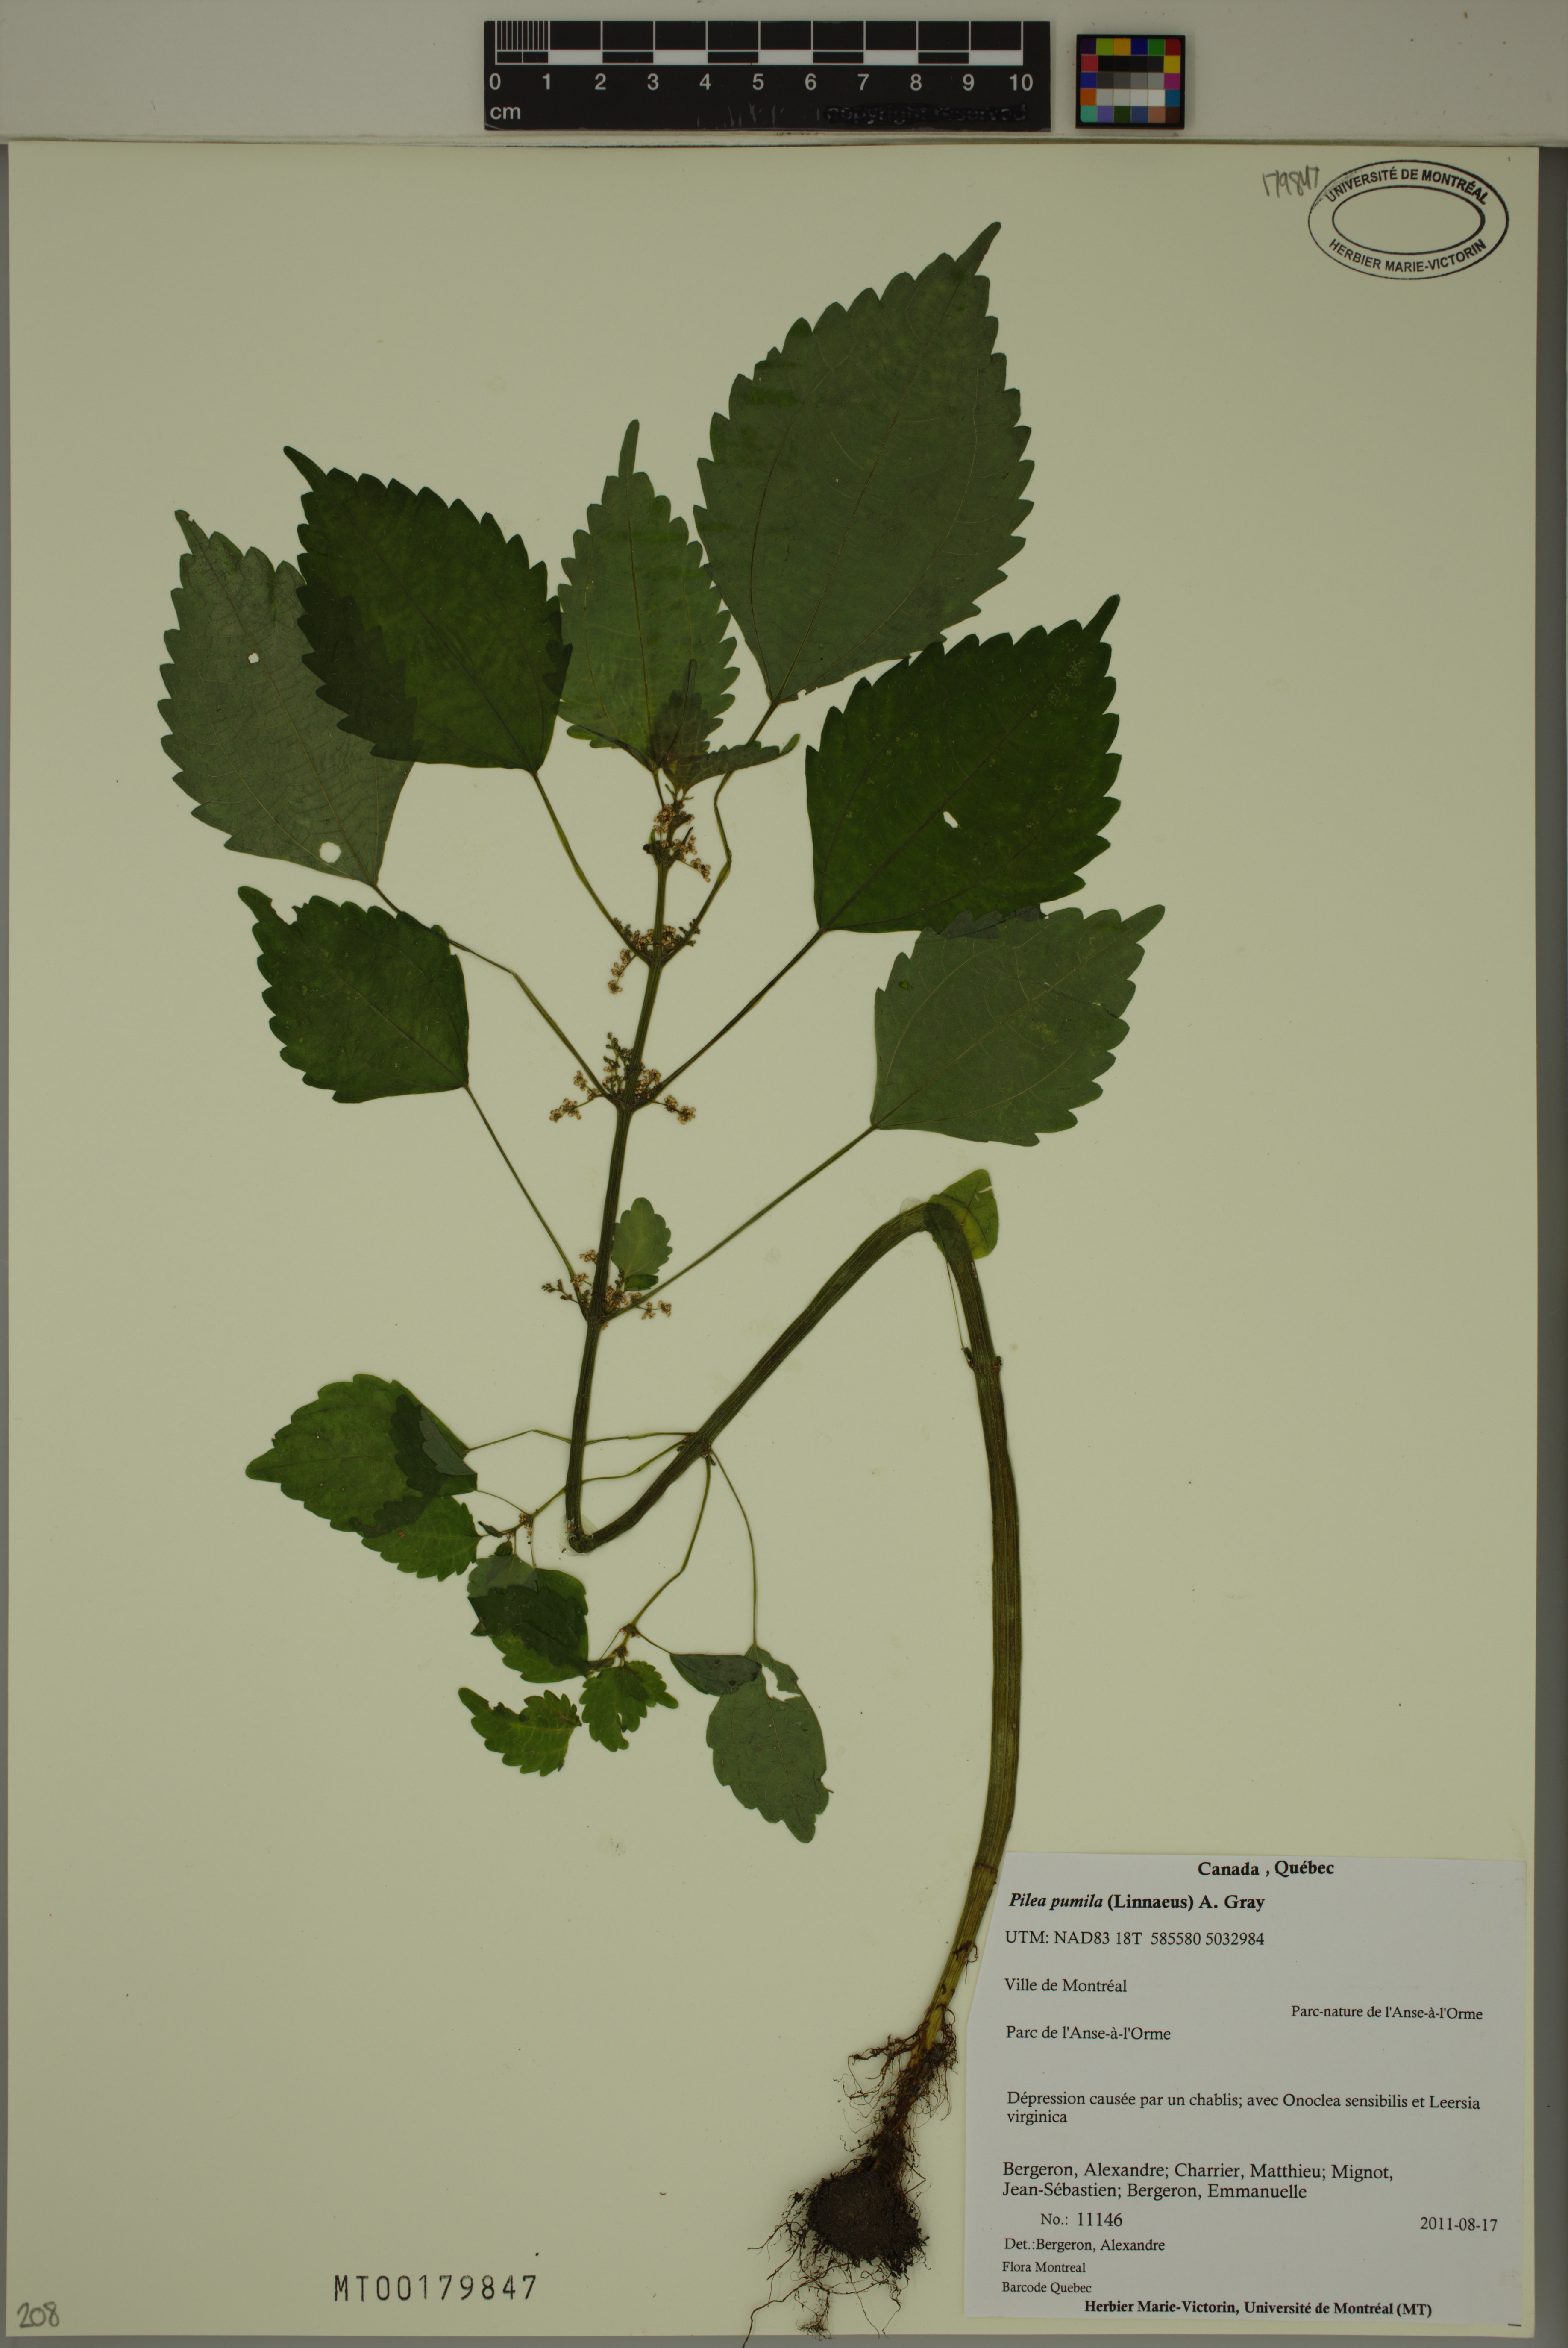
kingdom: Plantae
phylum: Tracheophyta
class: Magnoliopsida
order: Rosales
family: Urticaceae
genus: Pilea
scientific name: Pilea pumila
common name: Clearweed
